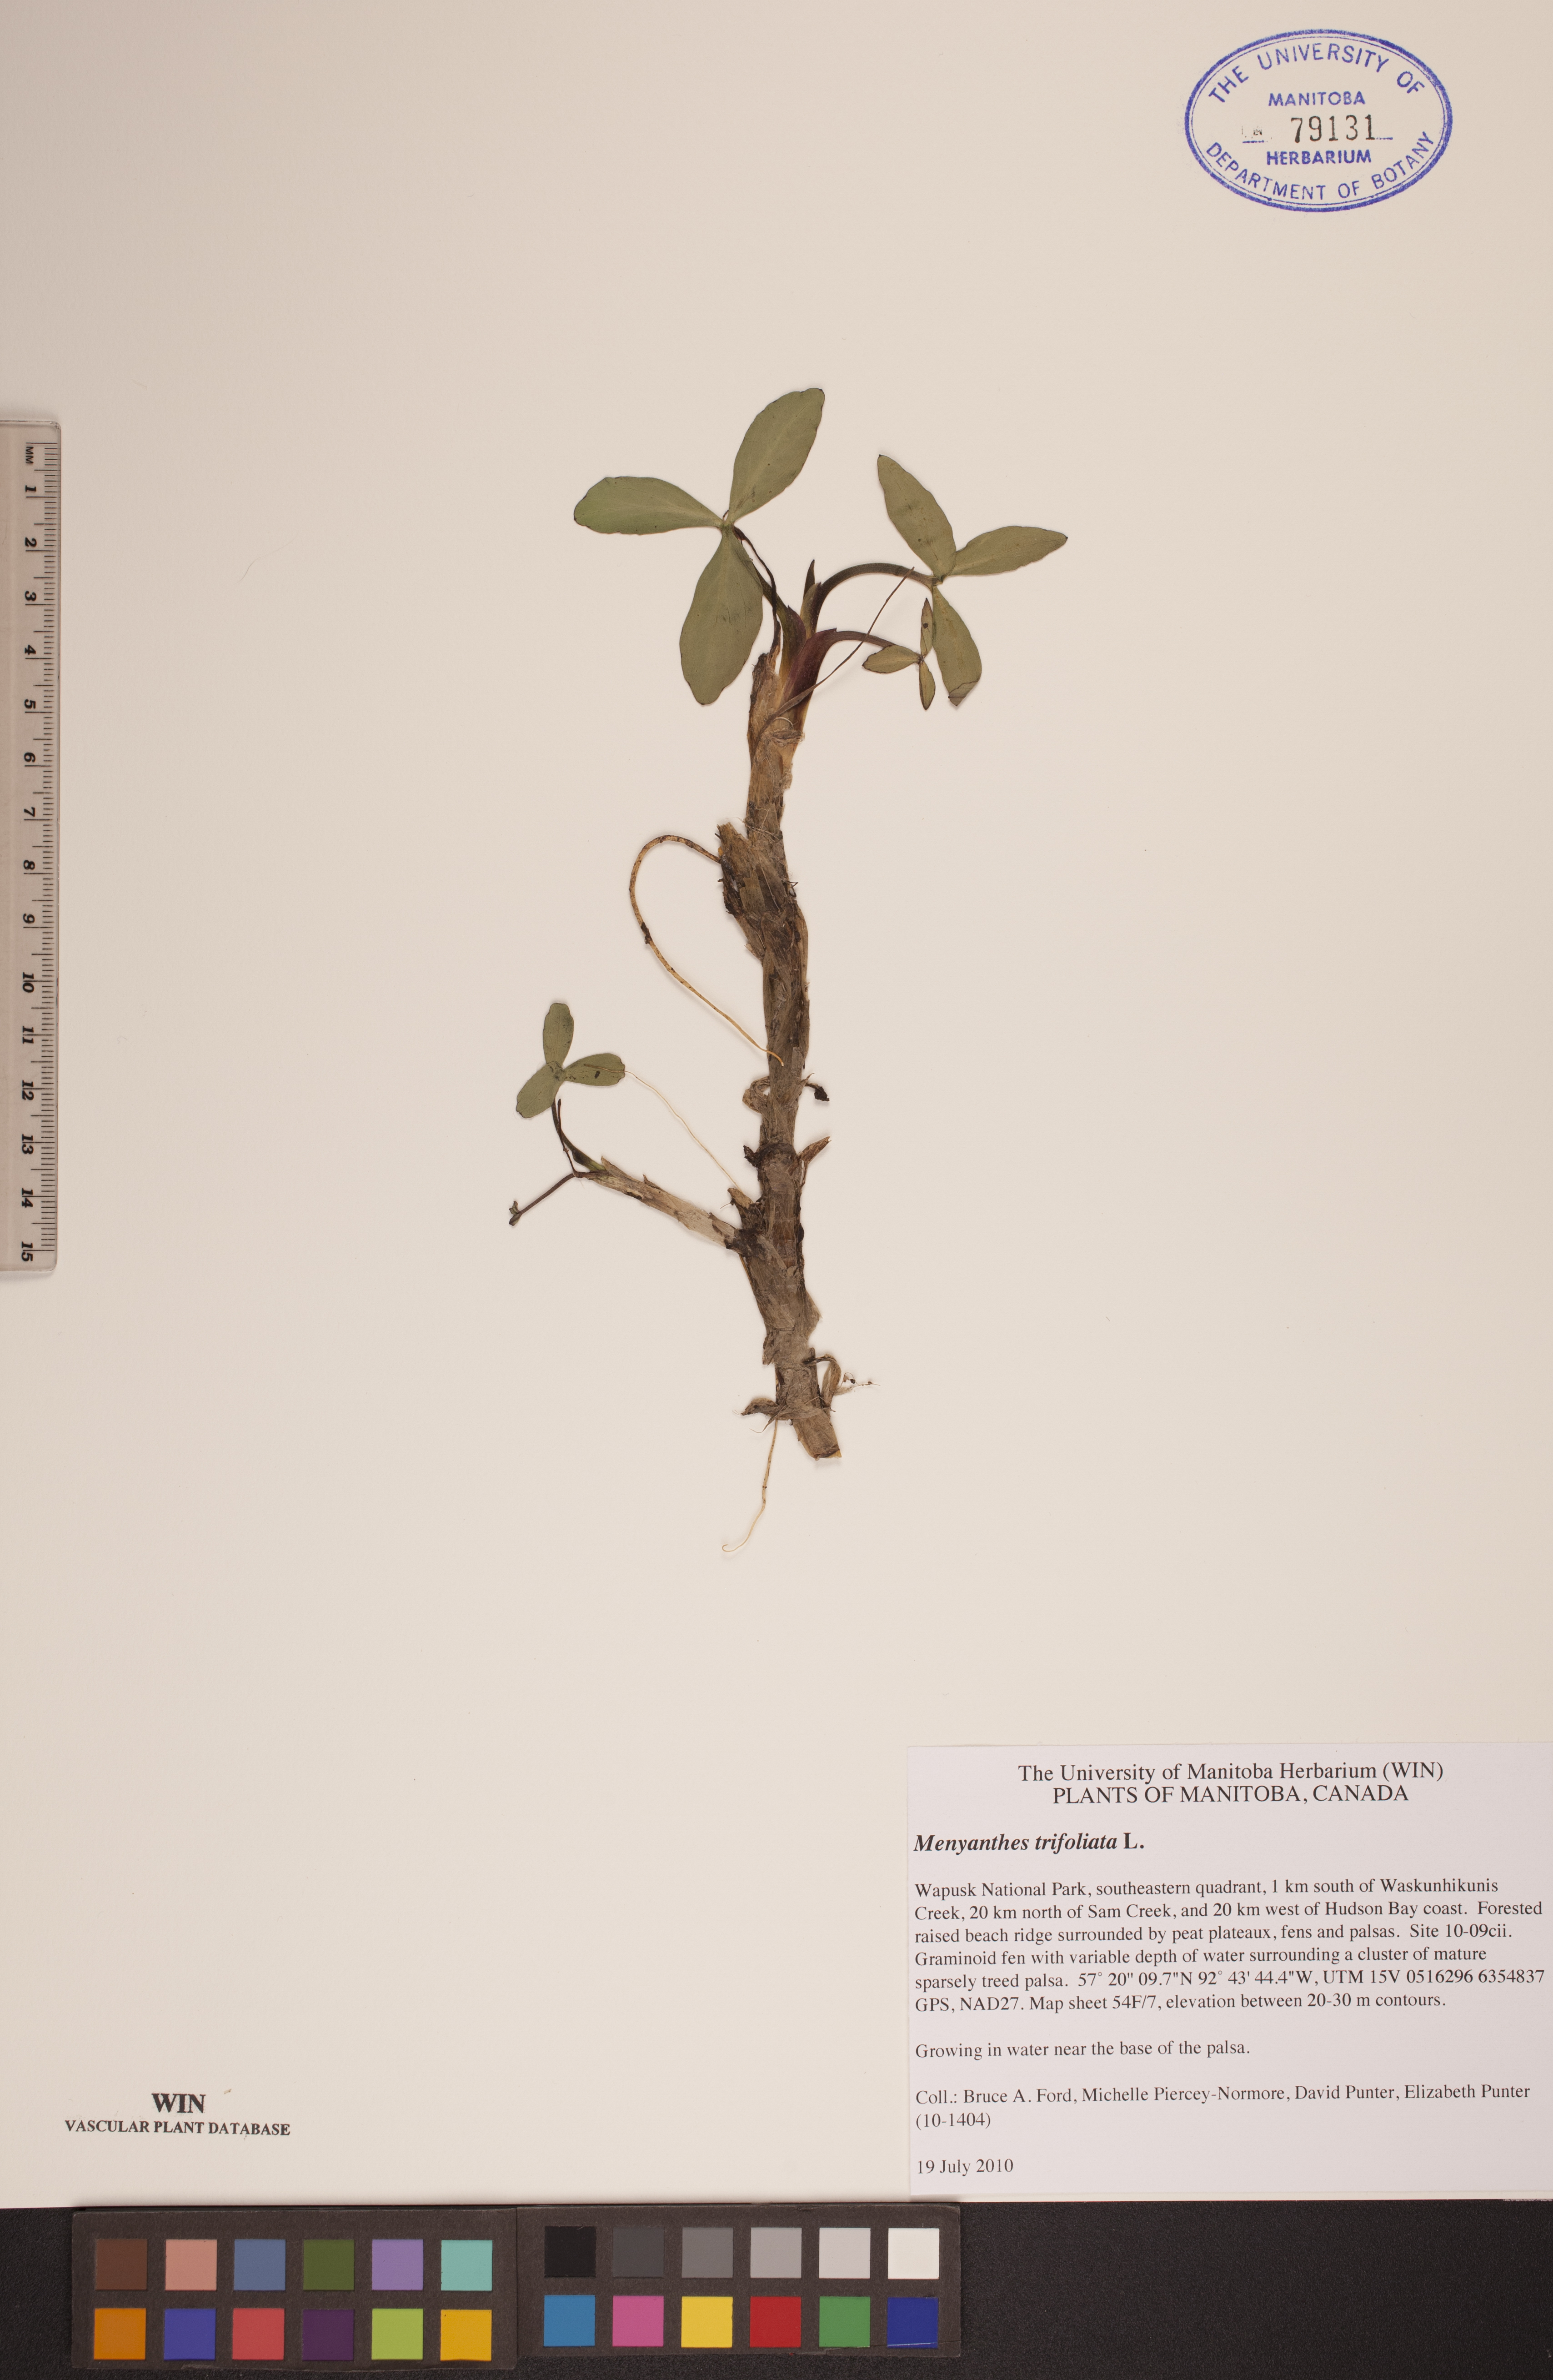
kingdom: Plantae
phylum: Tracheophyta
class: Magnoliopsida
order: Asterales
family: Menyanthaceae
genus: Menyanthes
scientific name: Menyanthes trifoliata
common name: Bogbean
